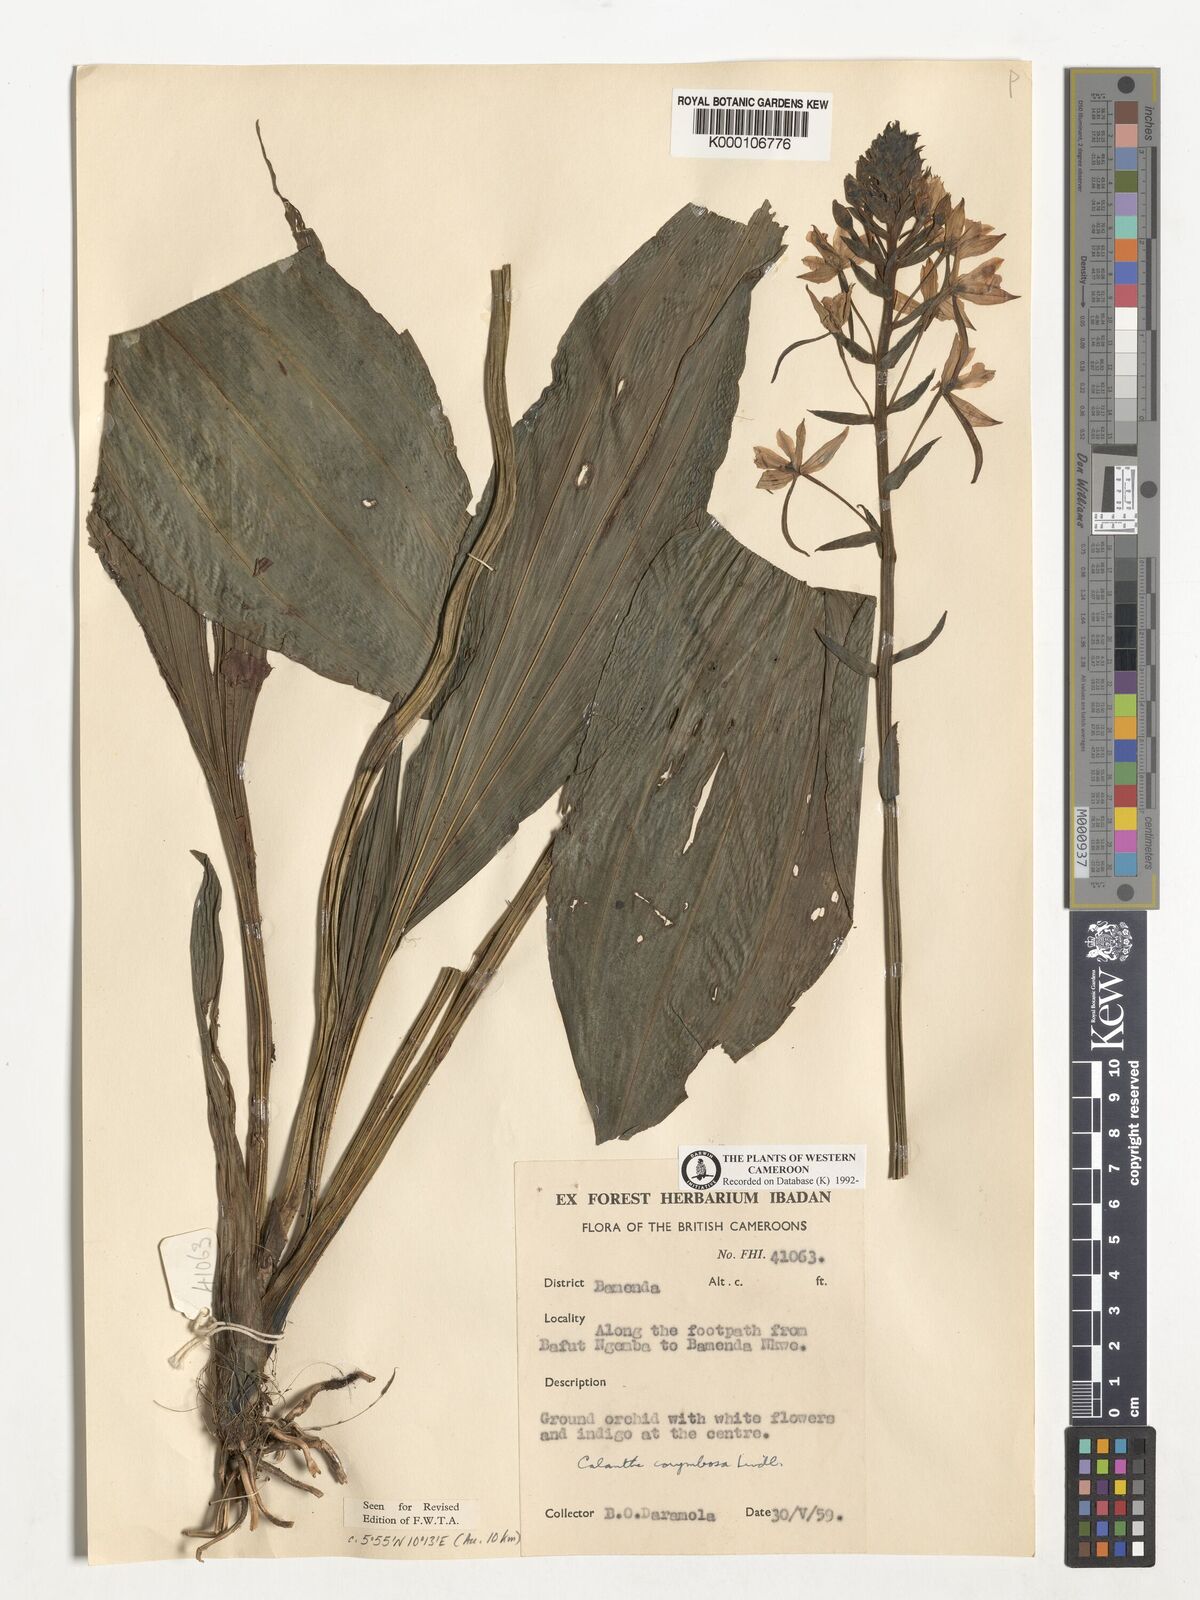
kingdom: Plantae
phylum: Tracheophyta
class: Liliopsida
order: Asparagales
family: Orchidaceae
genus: Calanthe
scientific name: Calanthe sylvatica
